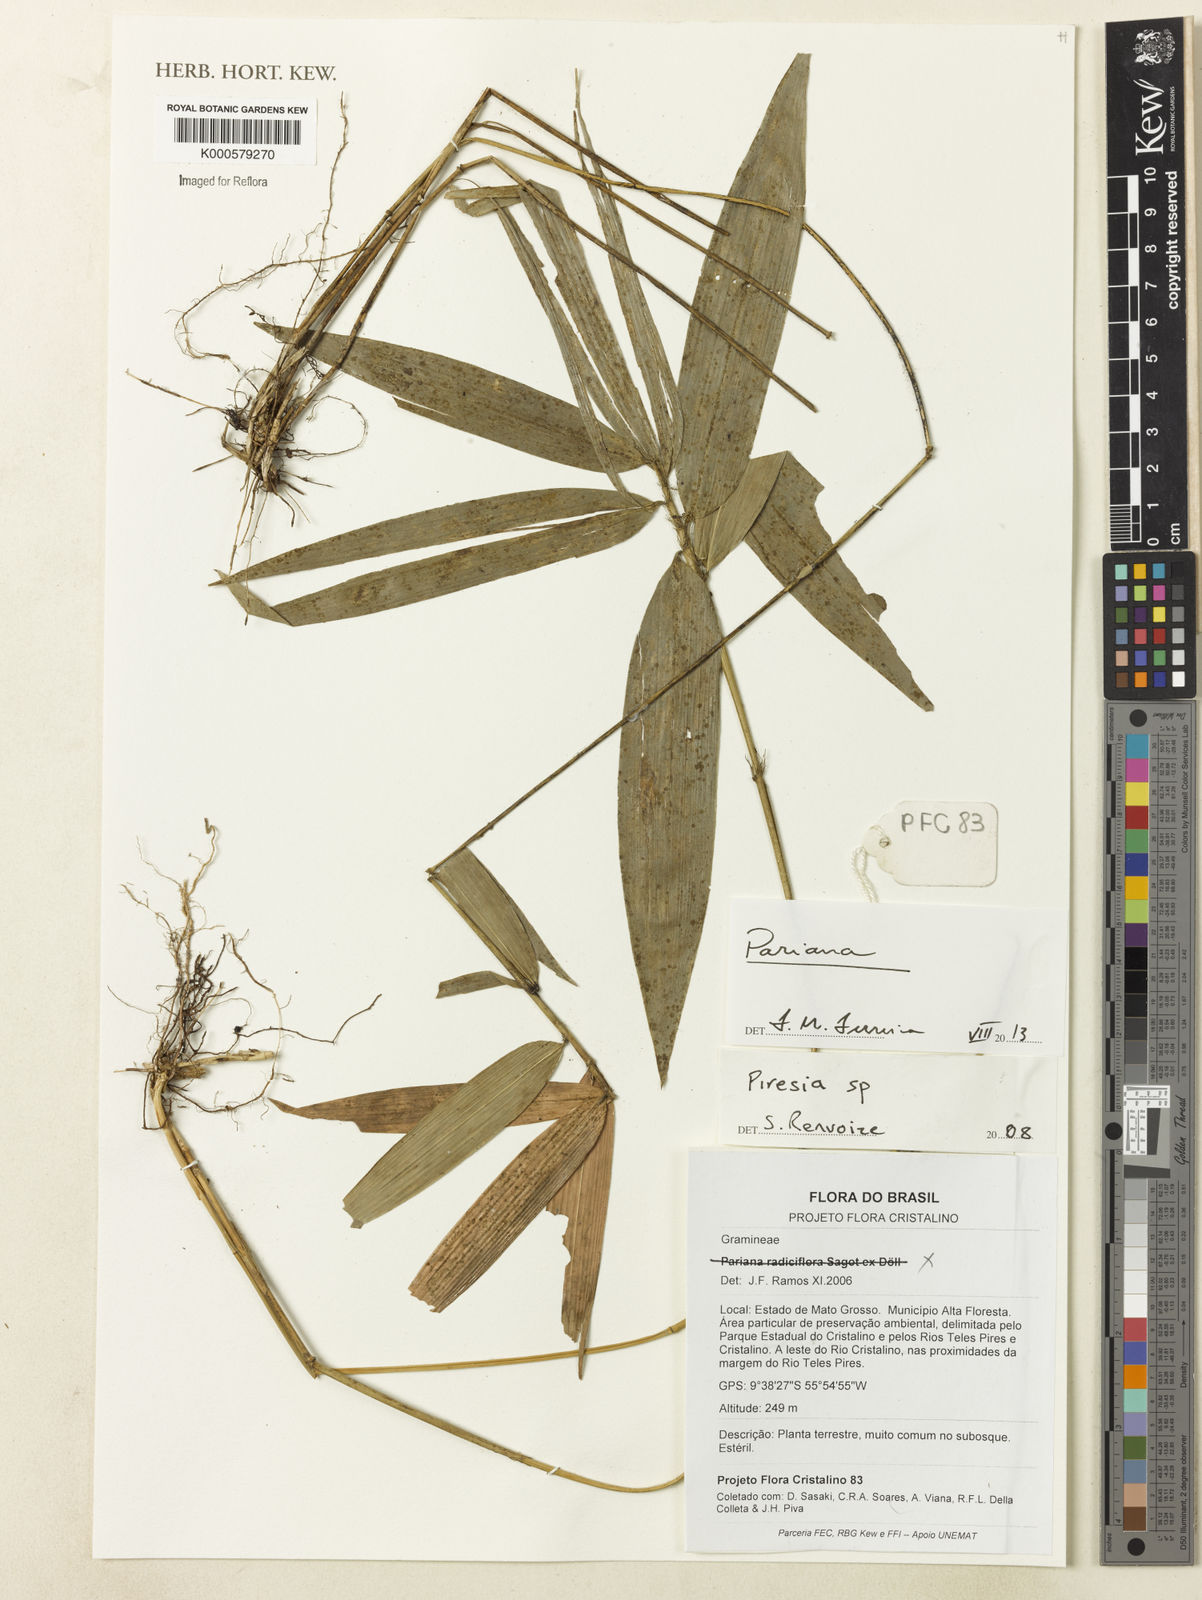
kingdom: Plantae
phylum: Tracheophyta
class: Liliopsida
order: Poales
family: Poaceae
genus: Piresia
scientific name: Piresia
